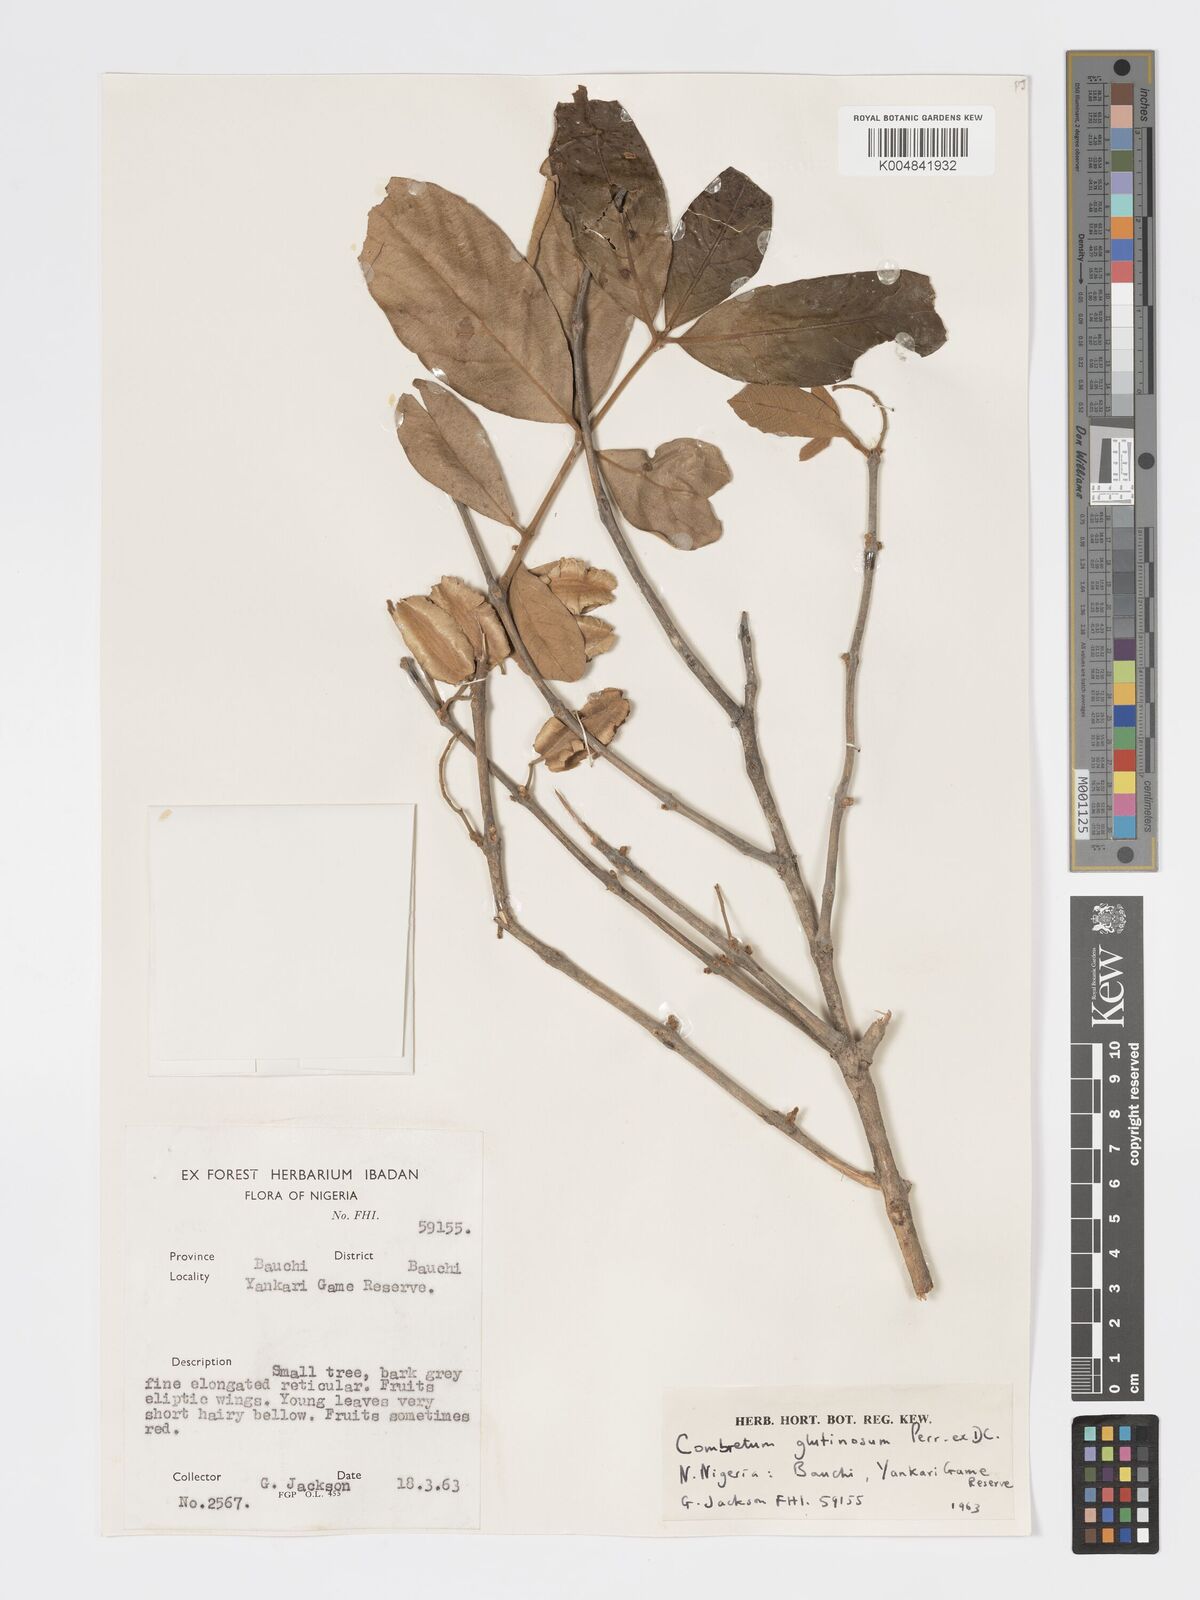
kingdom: Plantae
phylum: Tracheophyta
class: Magnoliopsida
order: Myrtales
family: Combretaceae
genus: Combretum
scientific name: Combretum
